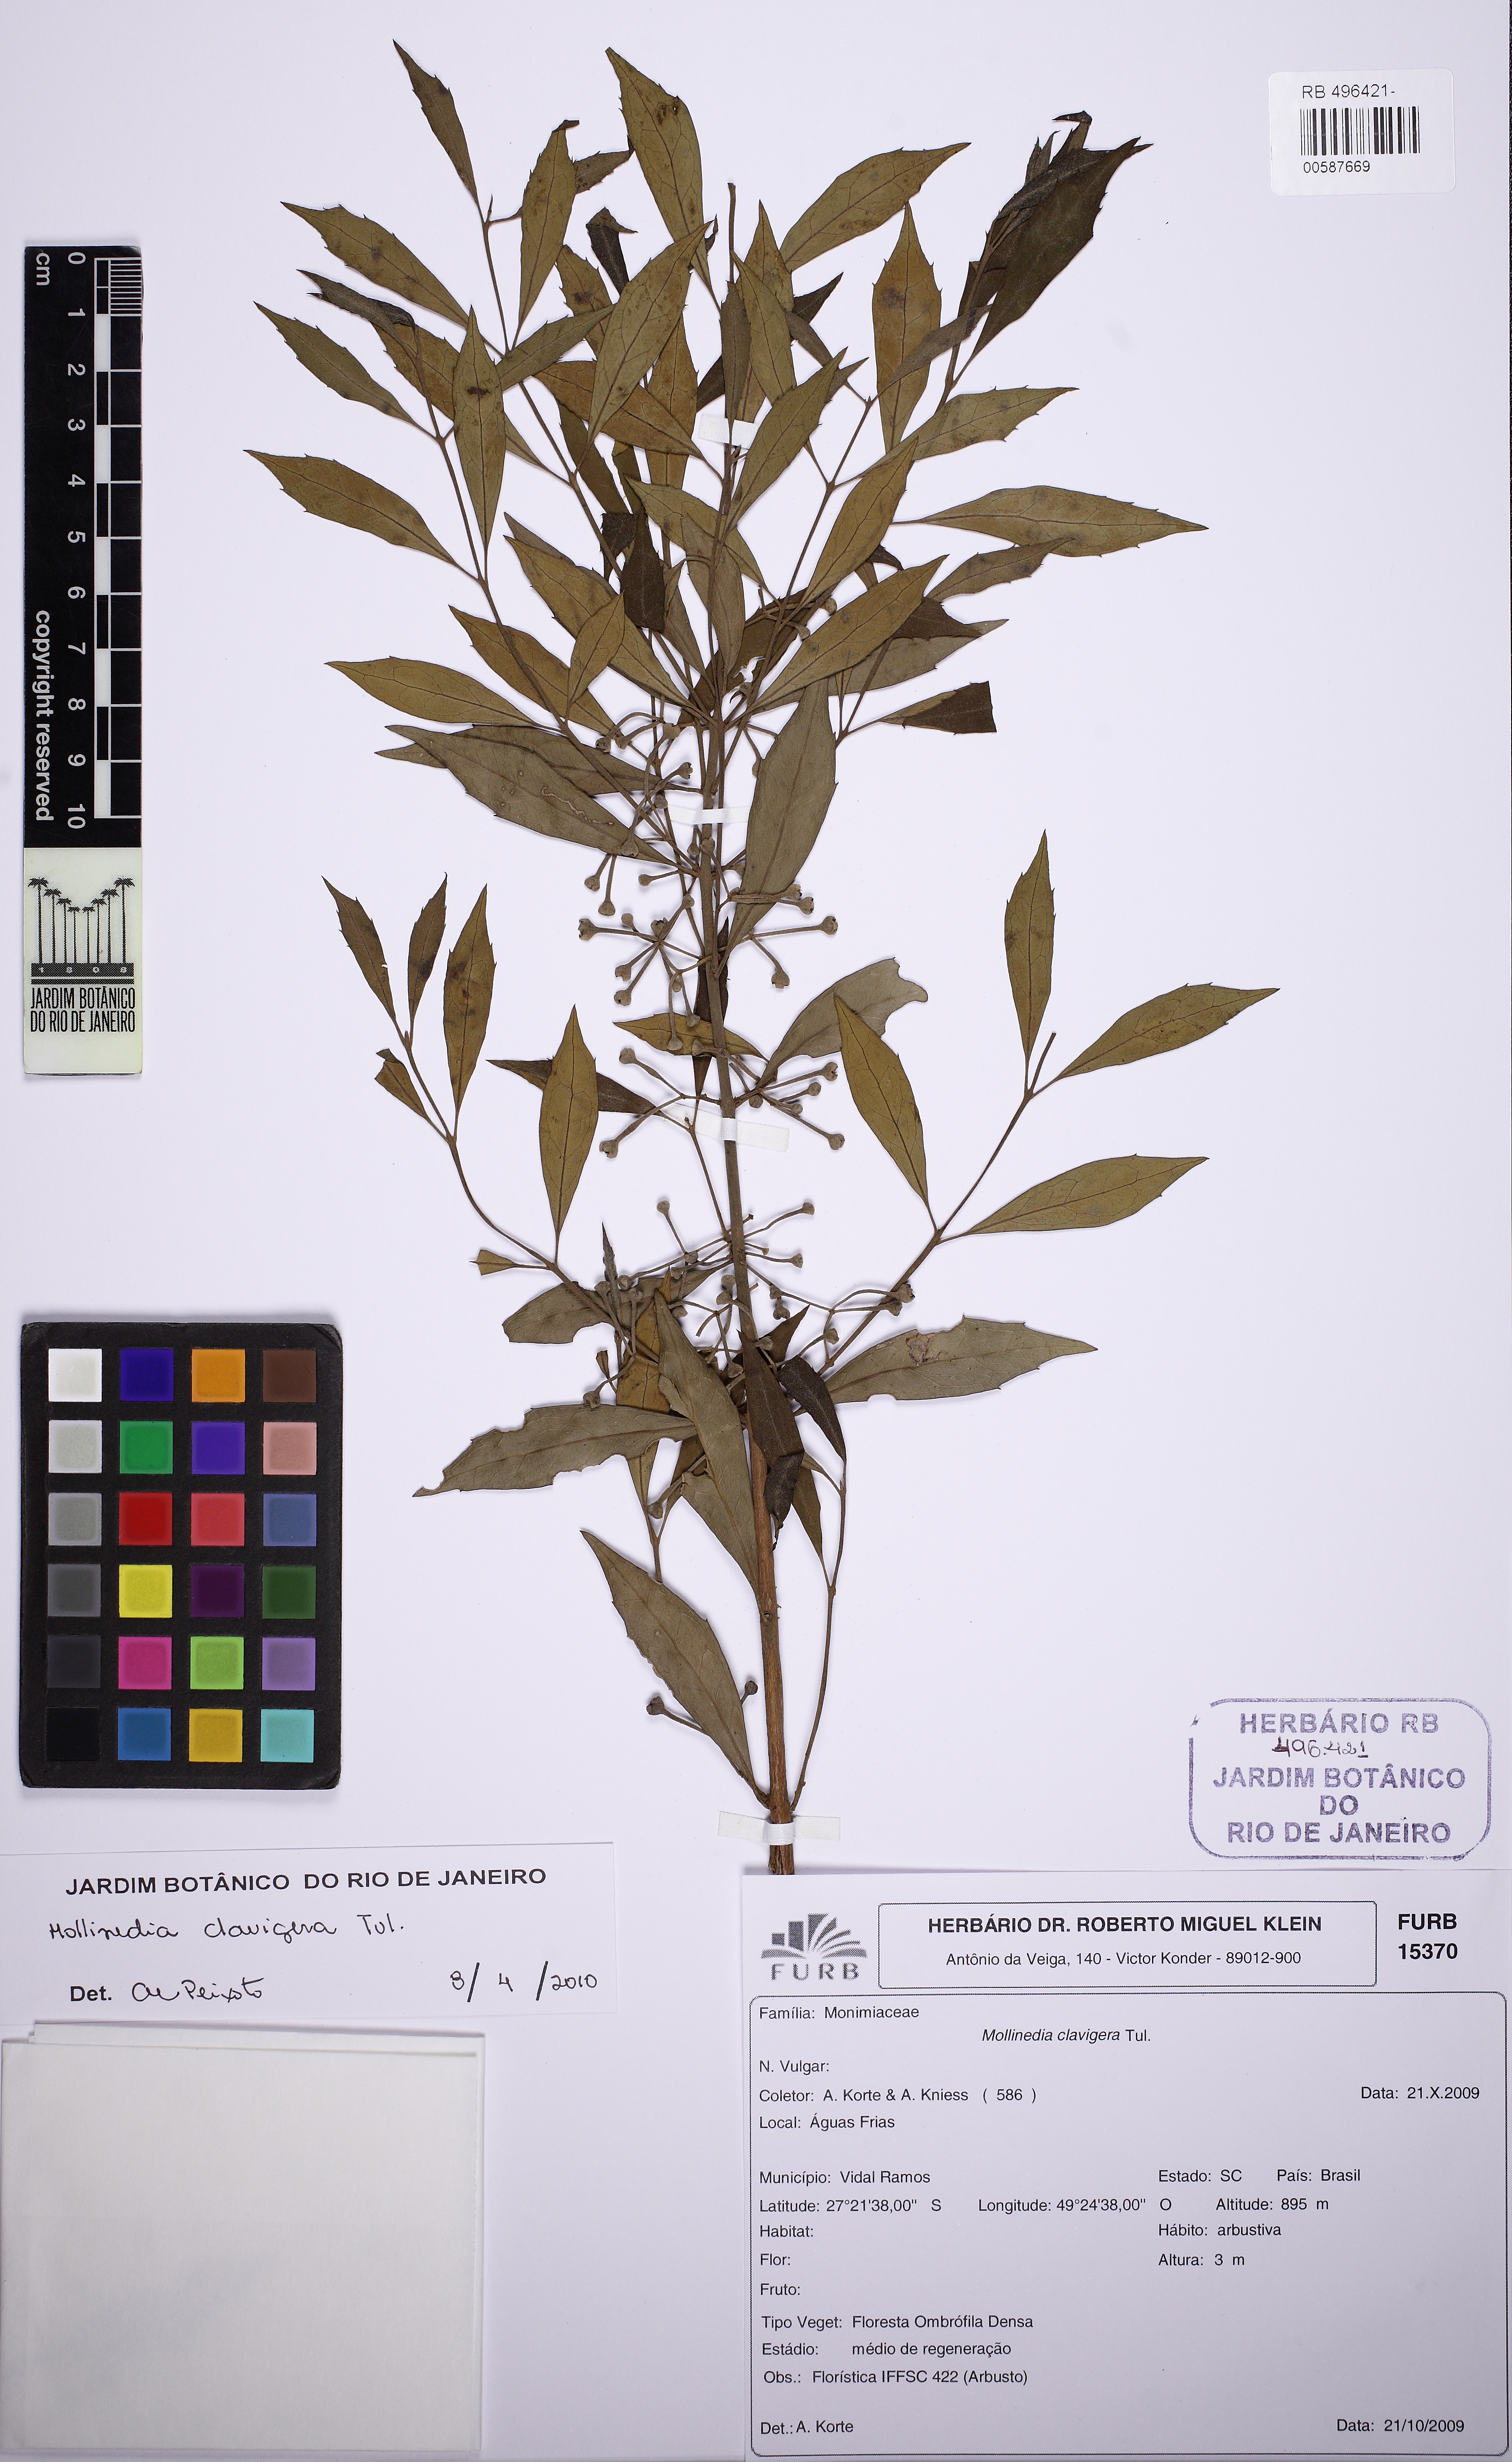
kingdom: Plantae
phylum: Tracheophyta
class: Magnoliopsida
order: Laurales
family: Monimiaceae
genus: Mollinedia
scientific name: Mollinedia clavigera
